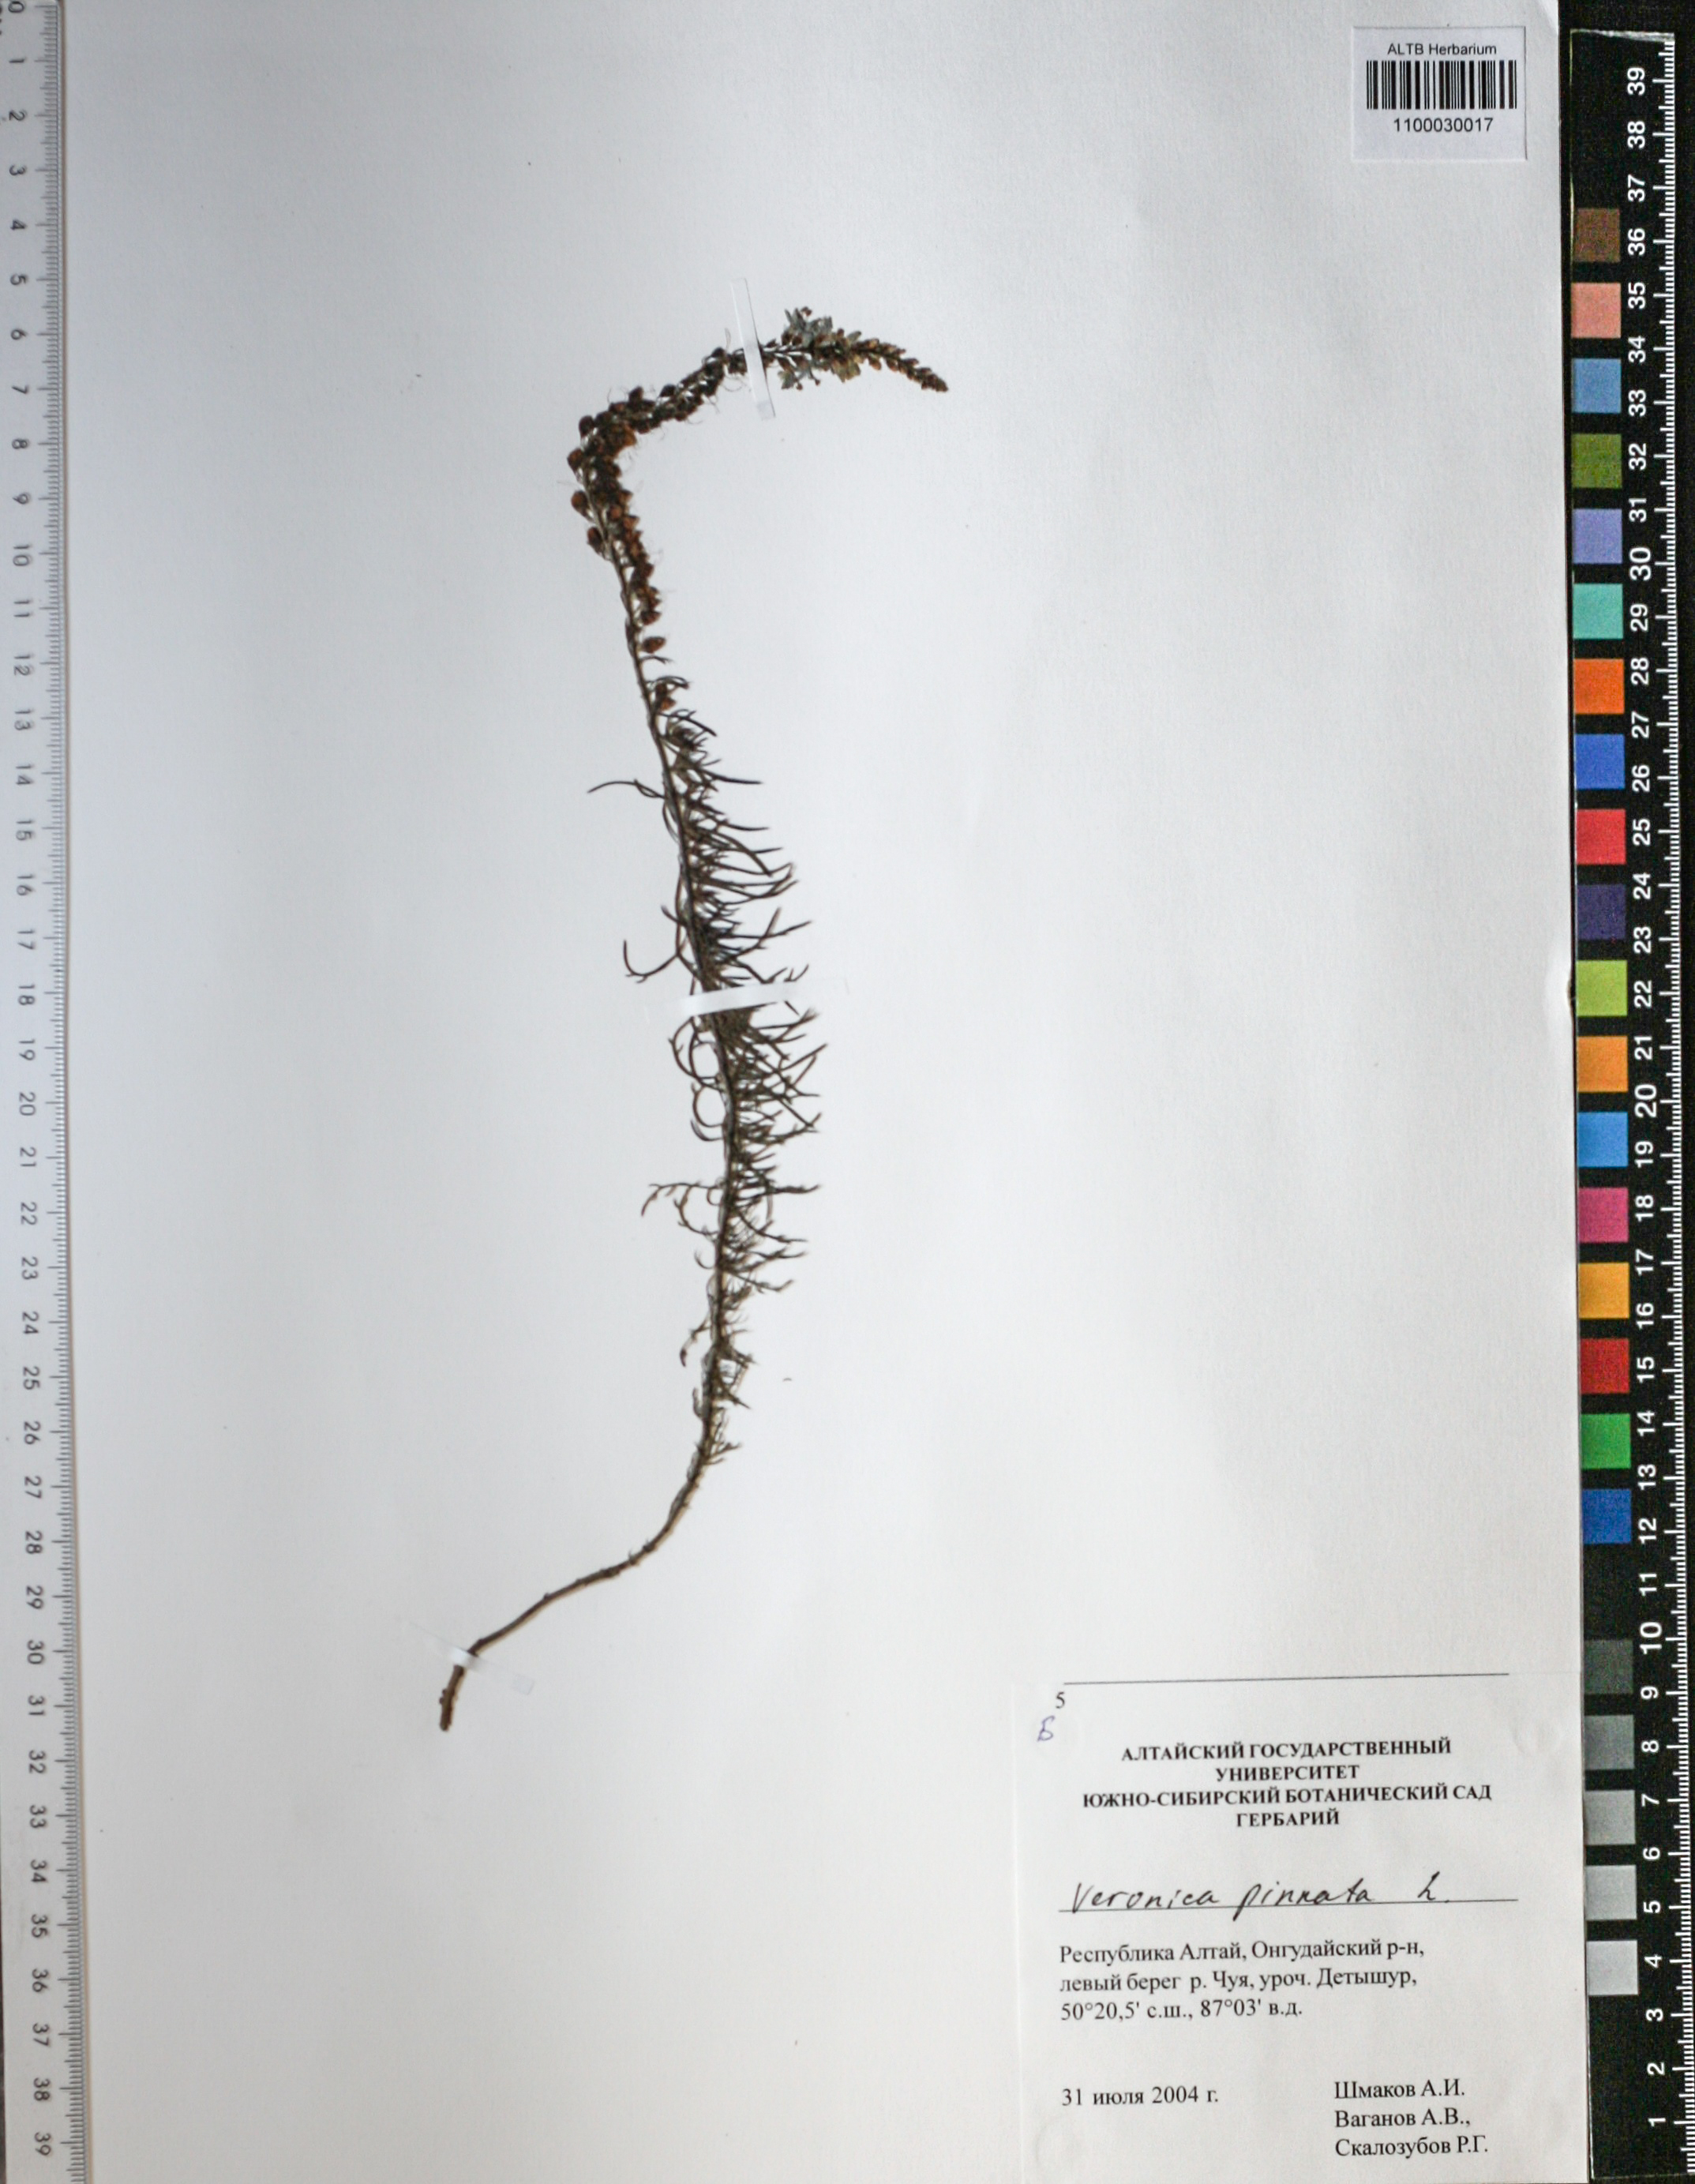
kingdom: Plantae
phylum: Tracheophyta
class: Magnoliopsida
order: Lamiales
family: Plantaginaceae
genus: Veronica
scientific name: Veronica pinnata
